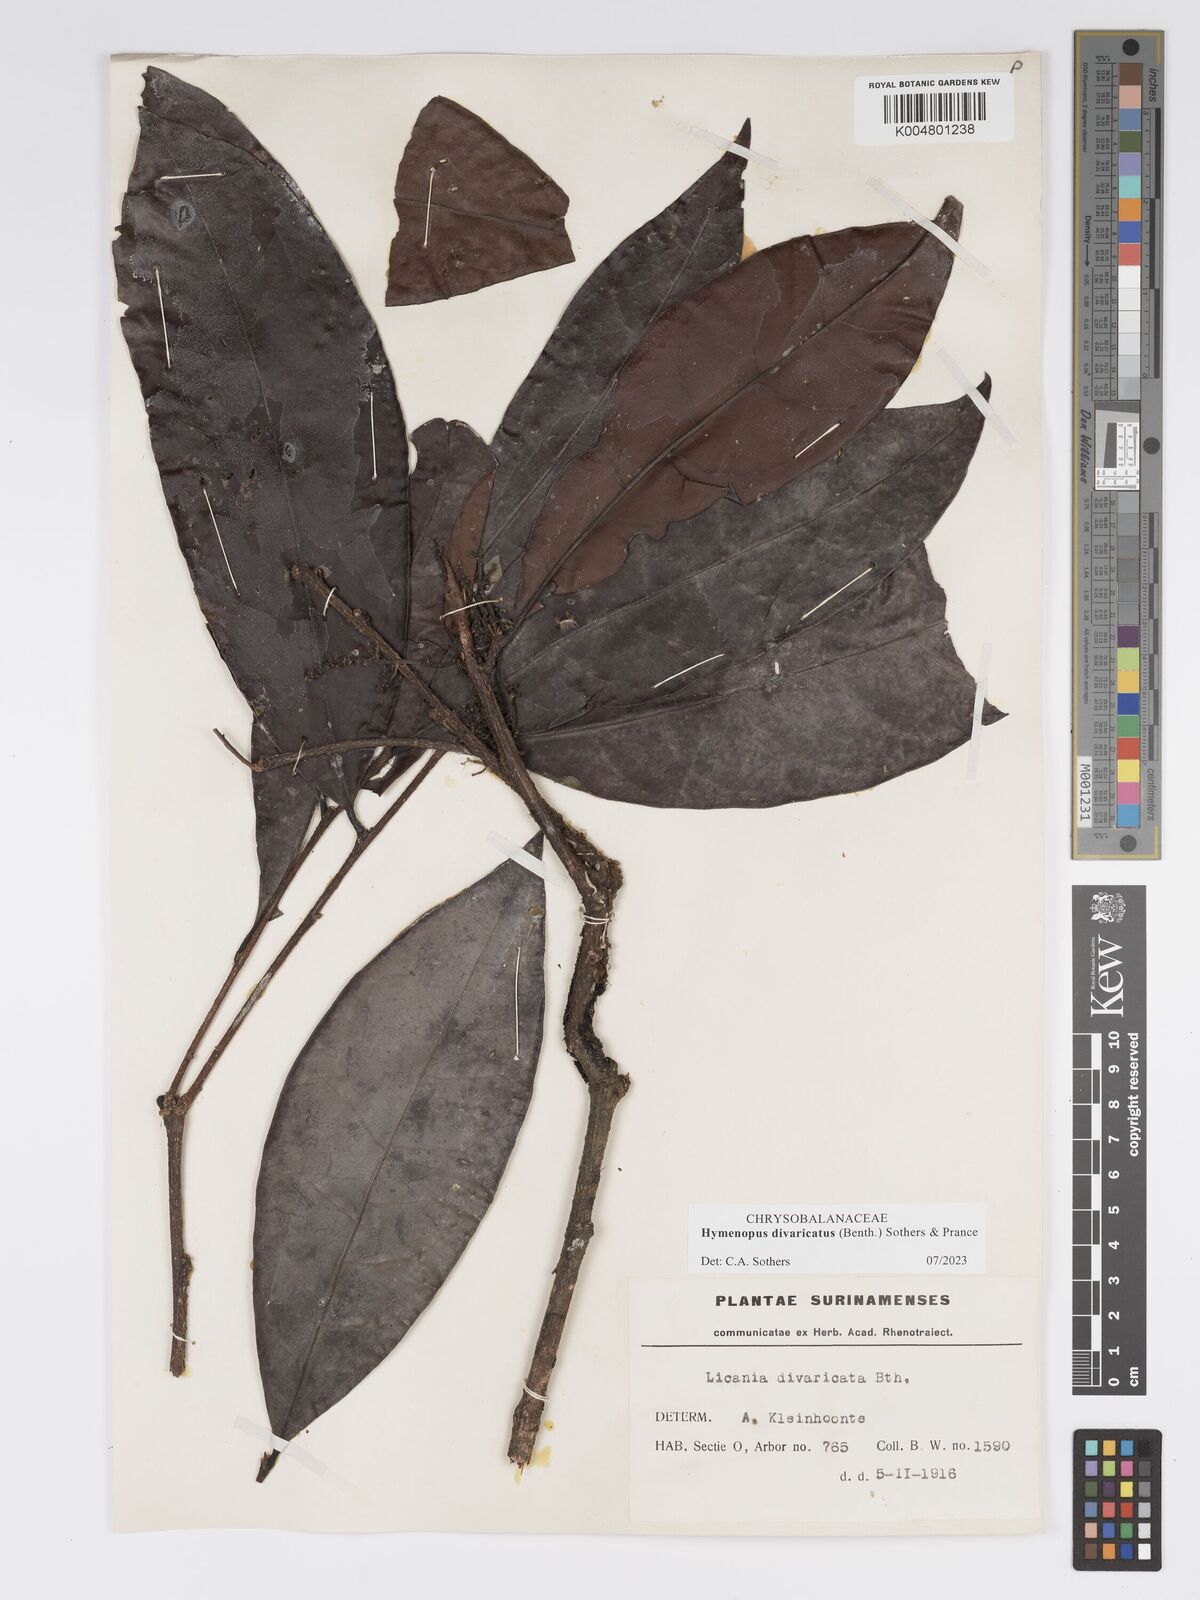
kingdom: Plantae
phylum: Tracheophyta
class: Magnoliopsida
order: Malpighiales
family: Chrysobalanaceae
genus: Hymenopus
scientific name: Hymenopus divaricatus
